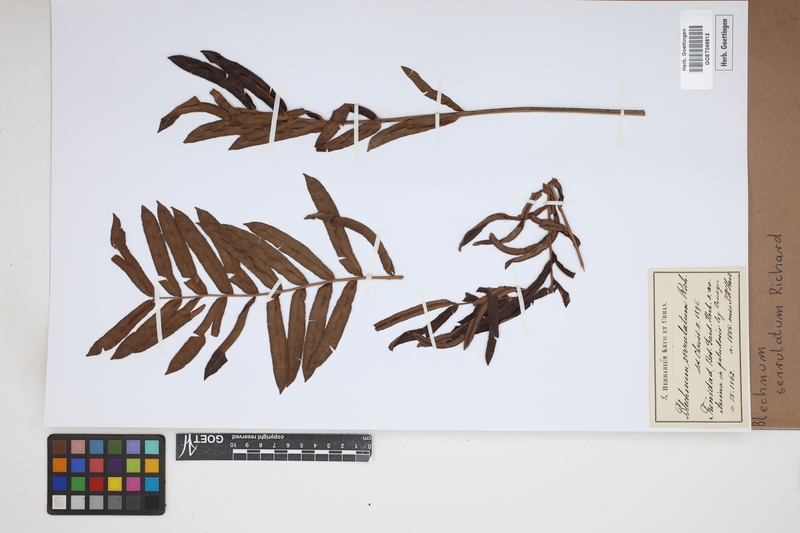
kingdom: Plantae
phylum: Tracheophyta
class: Polypodiopsida
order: Polypodiales
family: Blechnaceae
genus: Telmatoblechnum
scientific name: Telmatoblechnum serrulatum
